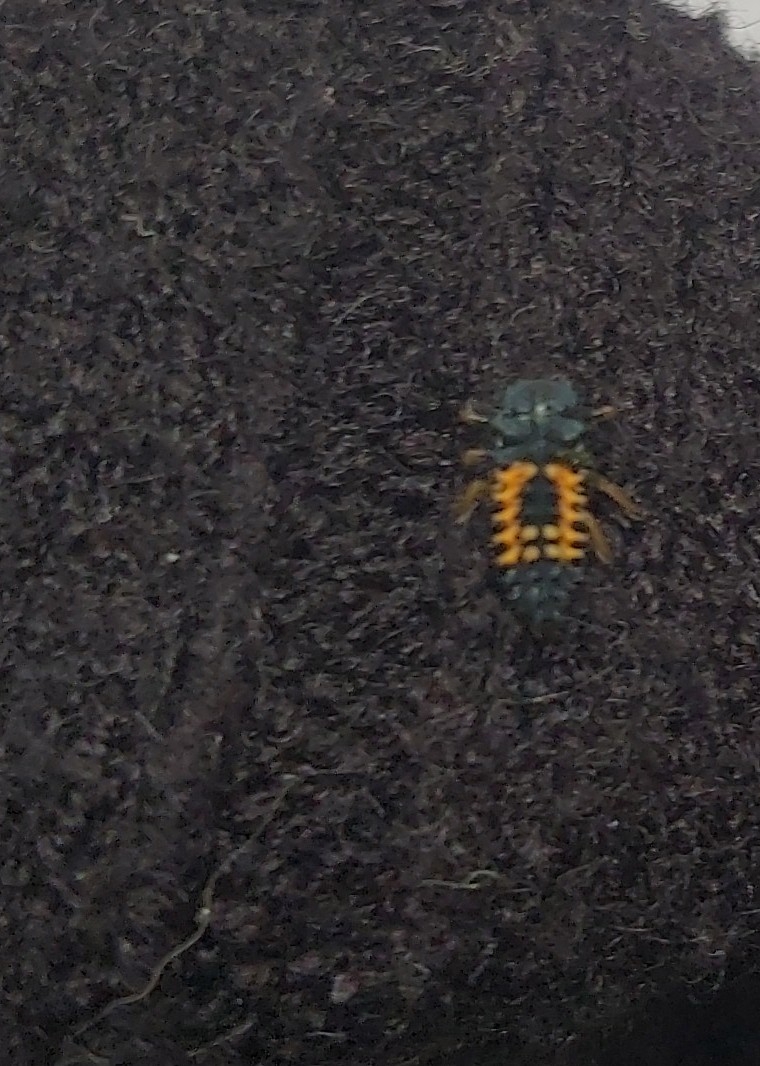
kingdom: Animalia
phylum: Arthropoda
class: Insecta
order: Coleoptera
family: Coccinellidae
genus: Harmonia
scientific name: Harmonia axyridis
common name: Harlekinmariehøne
